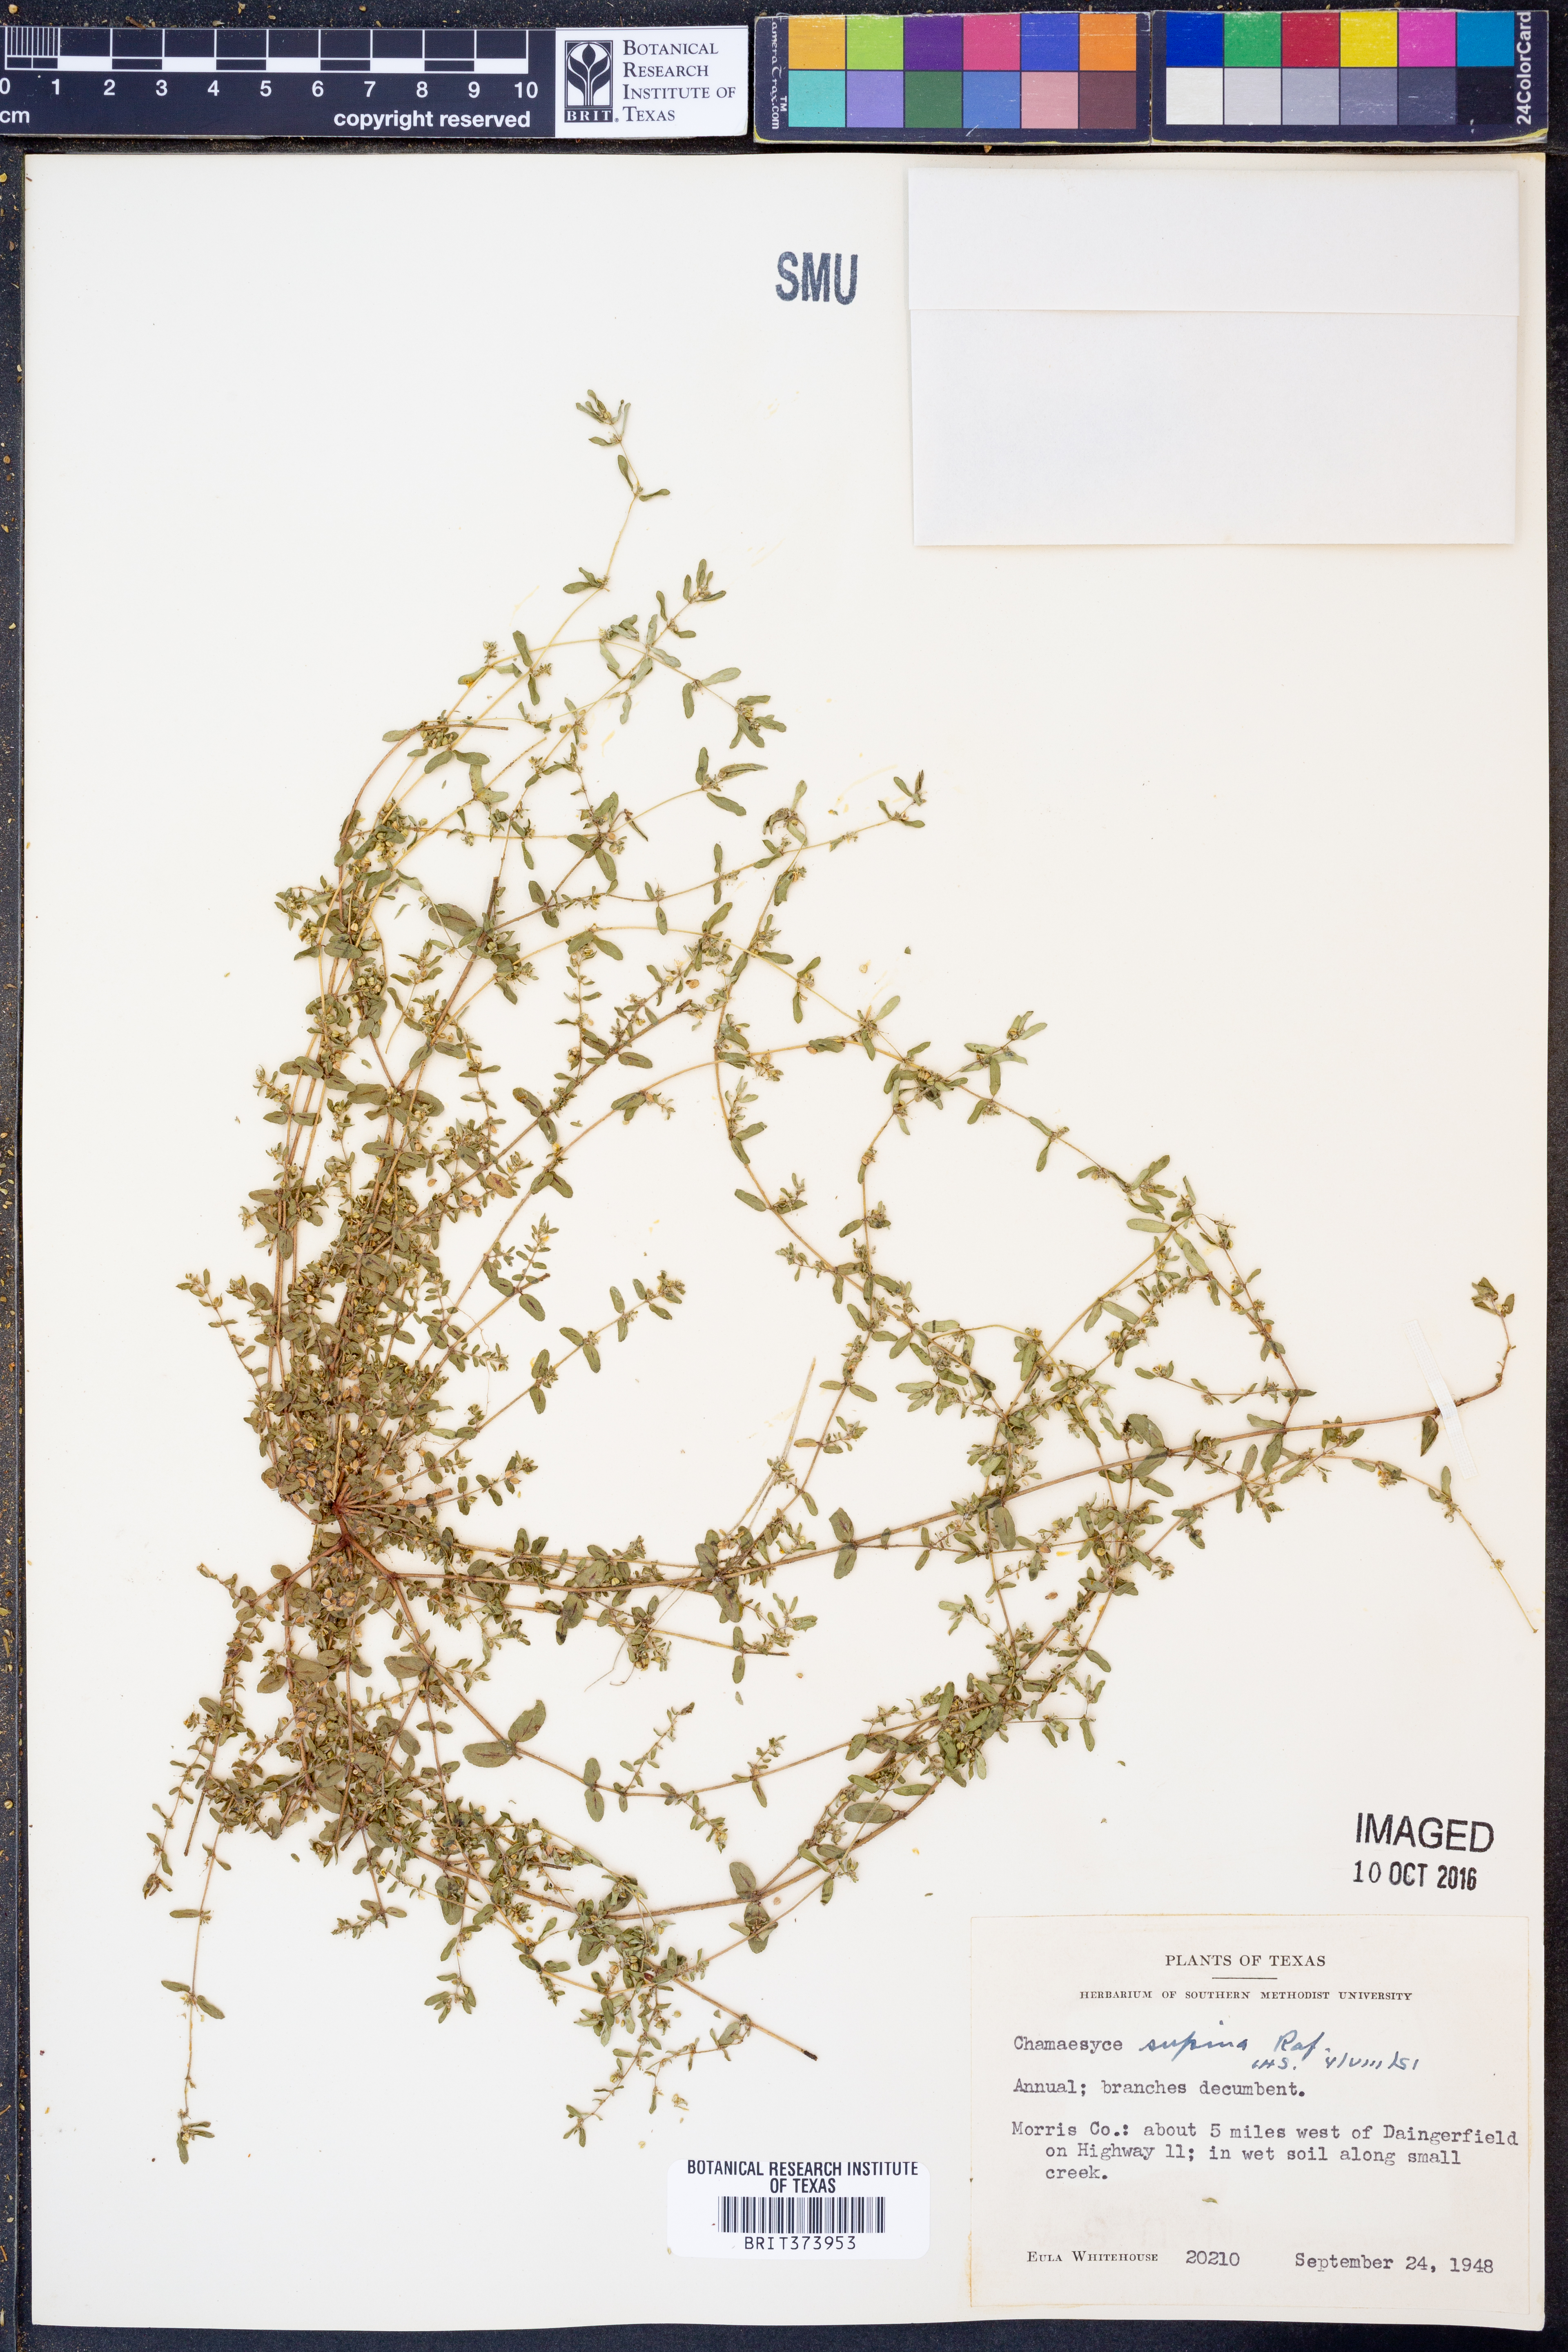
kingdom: Plantae
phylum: Tracheophyta
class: Magnoliopsida
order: Malpighiales
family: Euphorbiaceae
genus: Euphorbia
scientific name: Euphorbia maculata
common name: Spotted spurge
